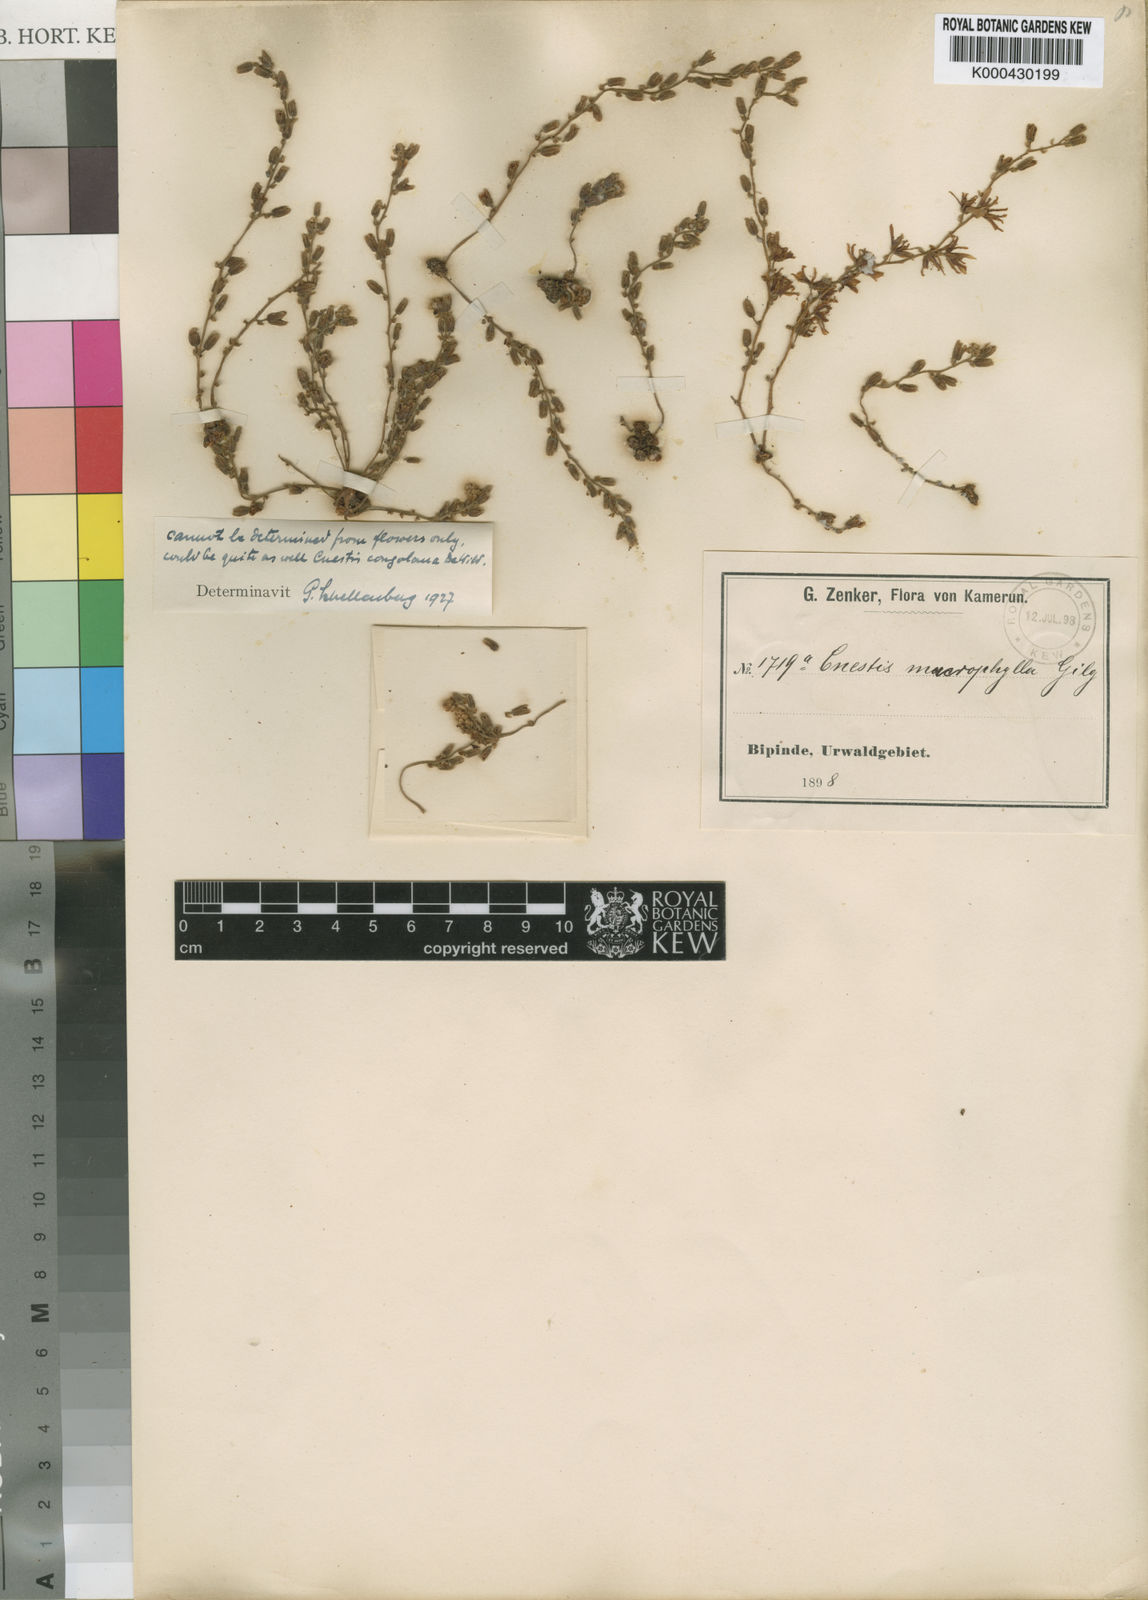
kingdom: Plantae
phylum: Tracheophyta
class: Magnoliopsida
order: Oxalidales
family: Connaraceae
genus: Agelaea
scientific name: Agelaea rubiginosa
